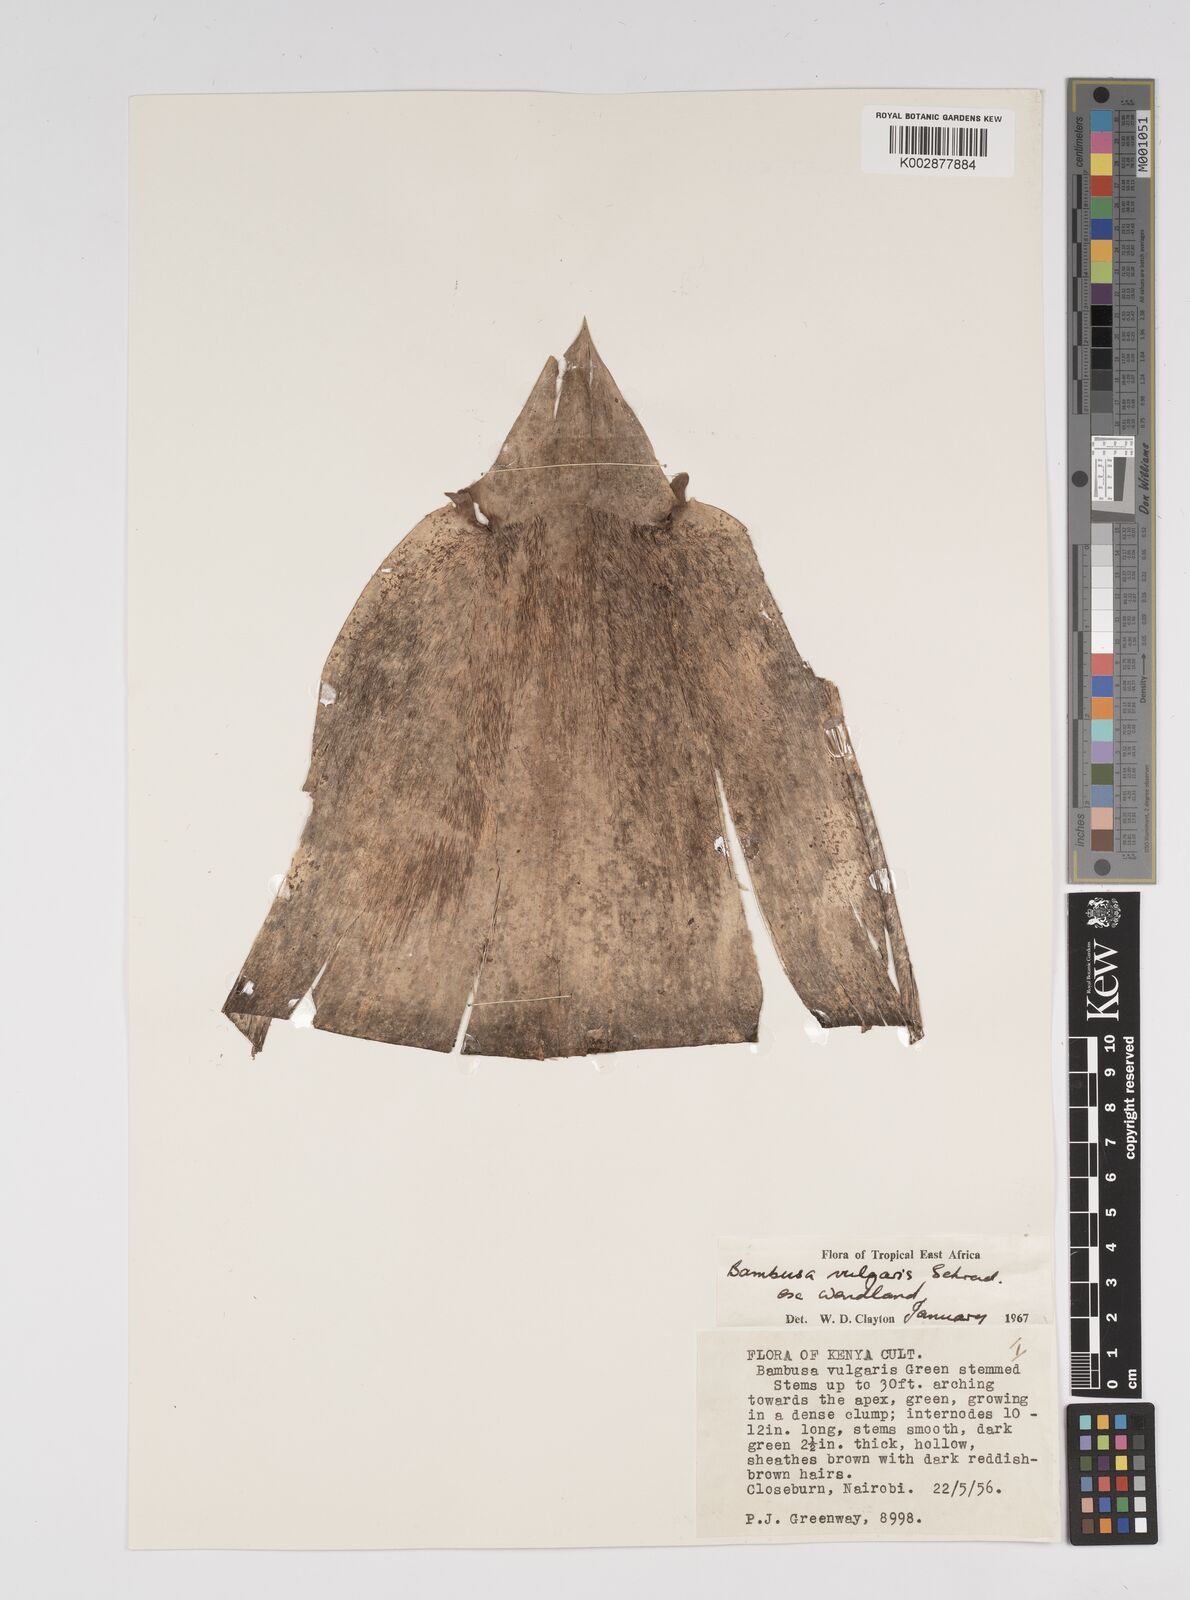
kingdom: Plantae
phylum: Tracheophyta
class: Liliopsida
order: Poales
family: Poaceae
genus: Bambusa
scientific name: Bambusa balcooa
